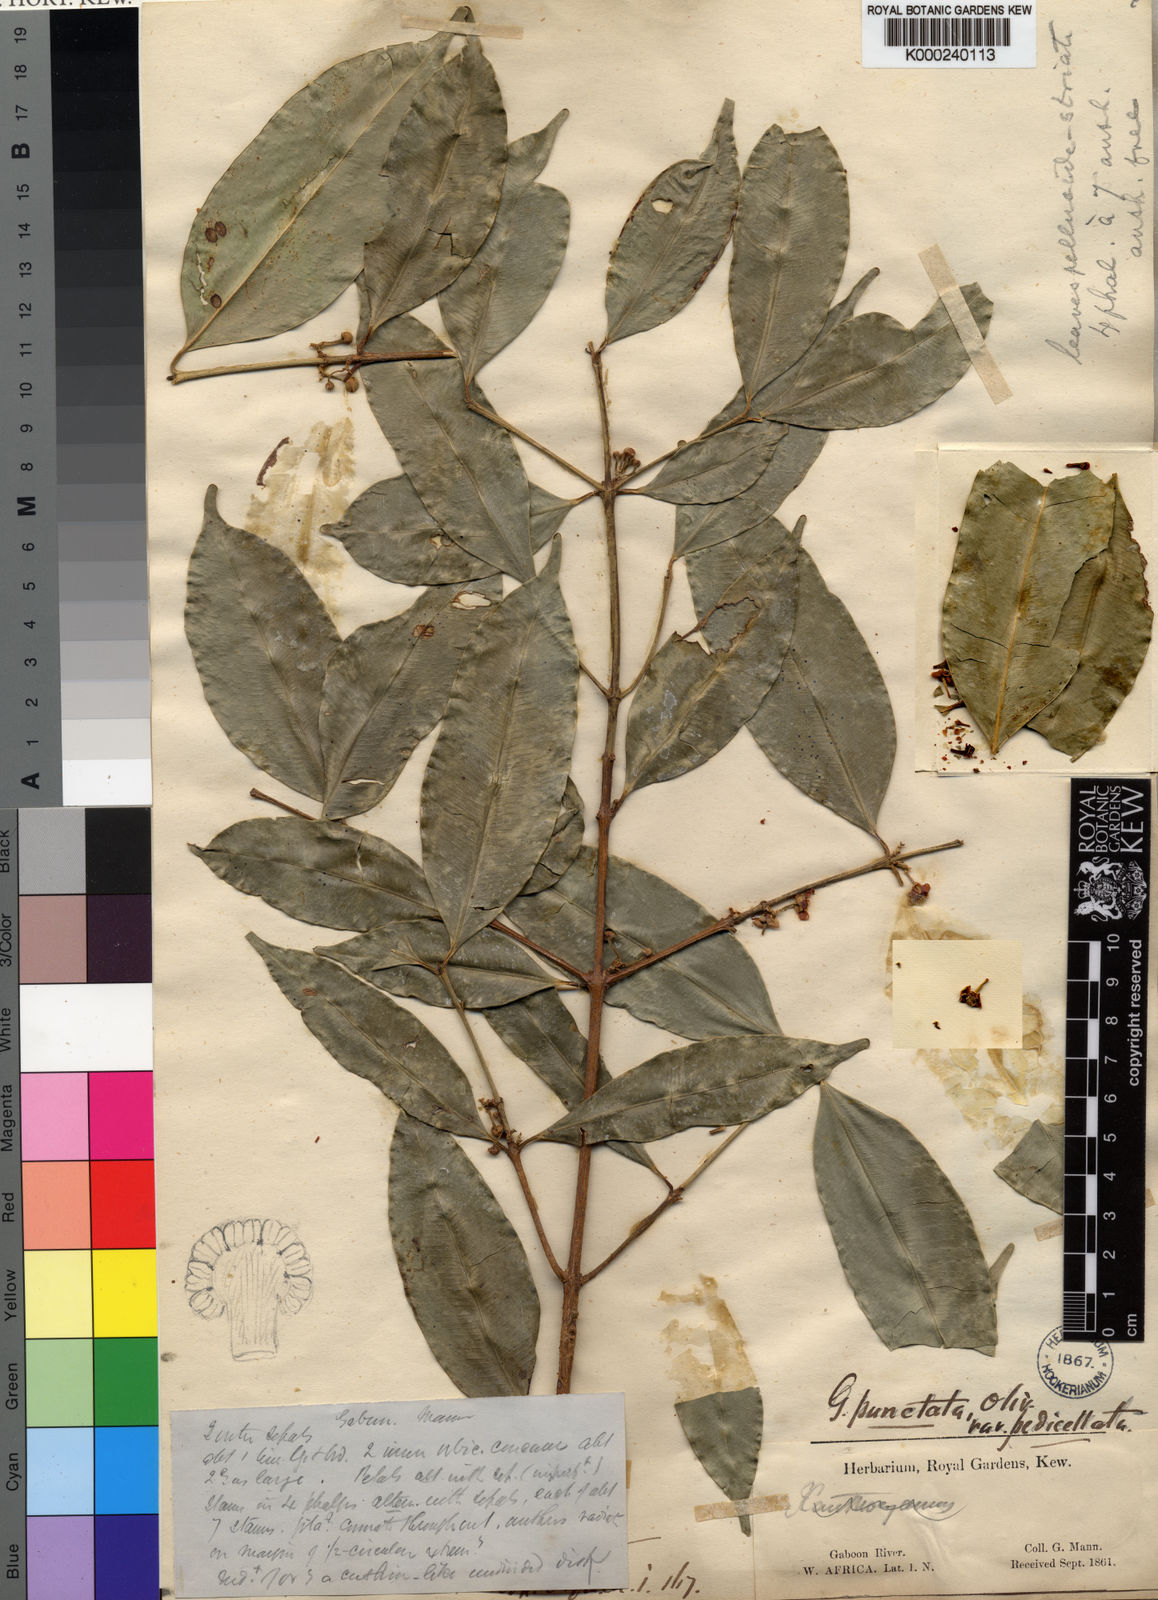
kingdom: Plantae
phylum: Tracheophyta
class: Magnoliopsida
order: Malpighiales
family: Clusiaceae
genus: Garcinia
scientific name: Garcinia punctata
